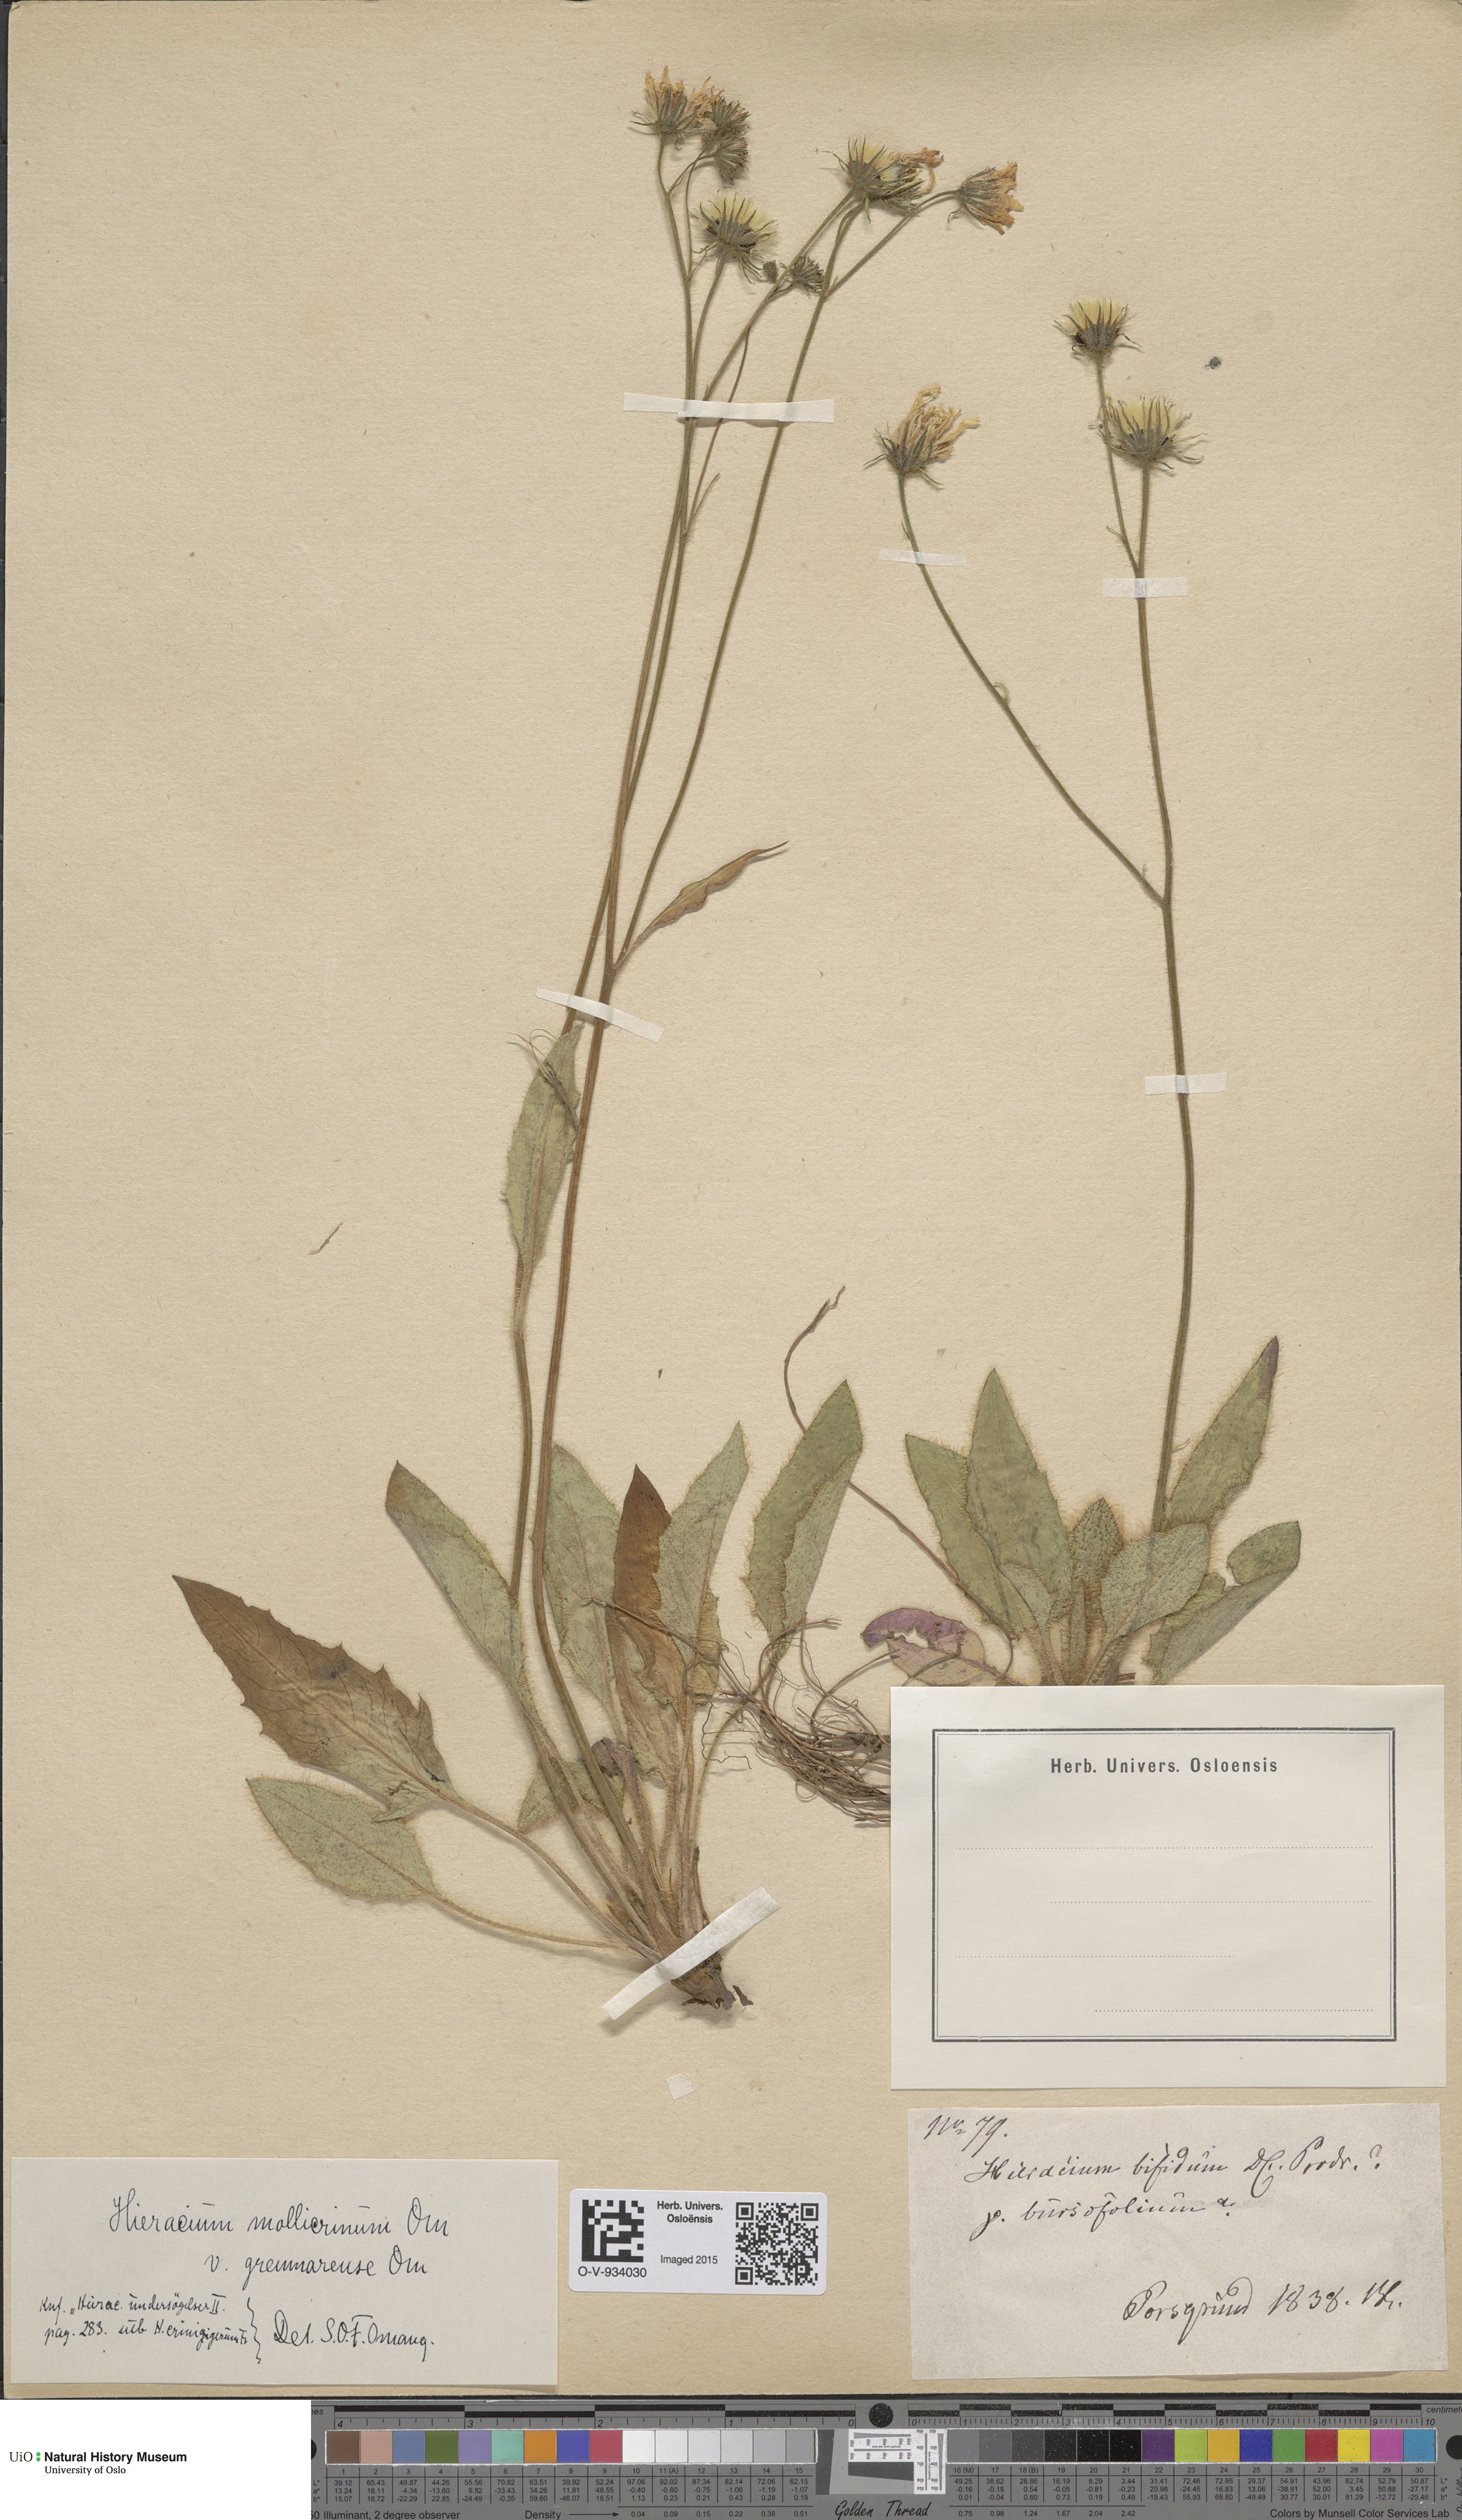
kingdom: Plantae
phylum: Tracheophyta
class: Magnoliopsida
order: Asterales
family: Asteraceae
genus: Hieracium
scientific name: Hieracium schmidtii
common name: Schmidt's hawkweed
